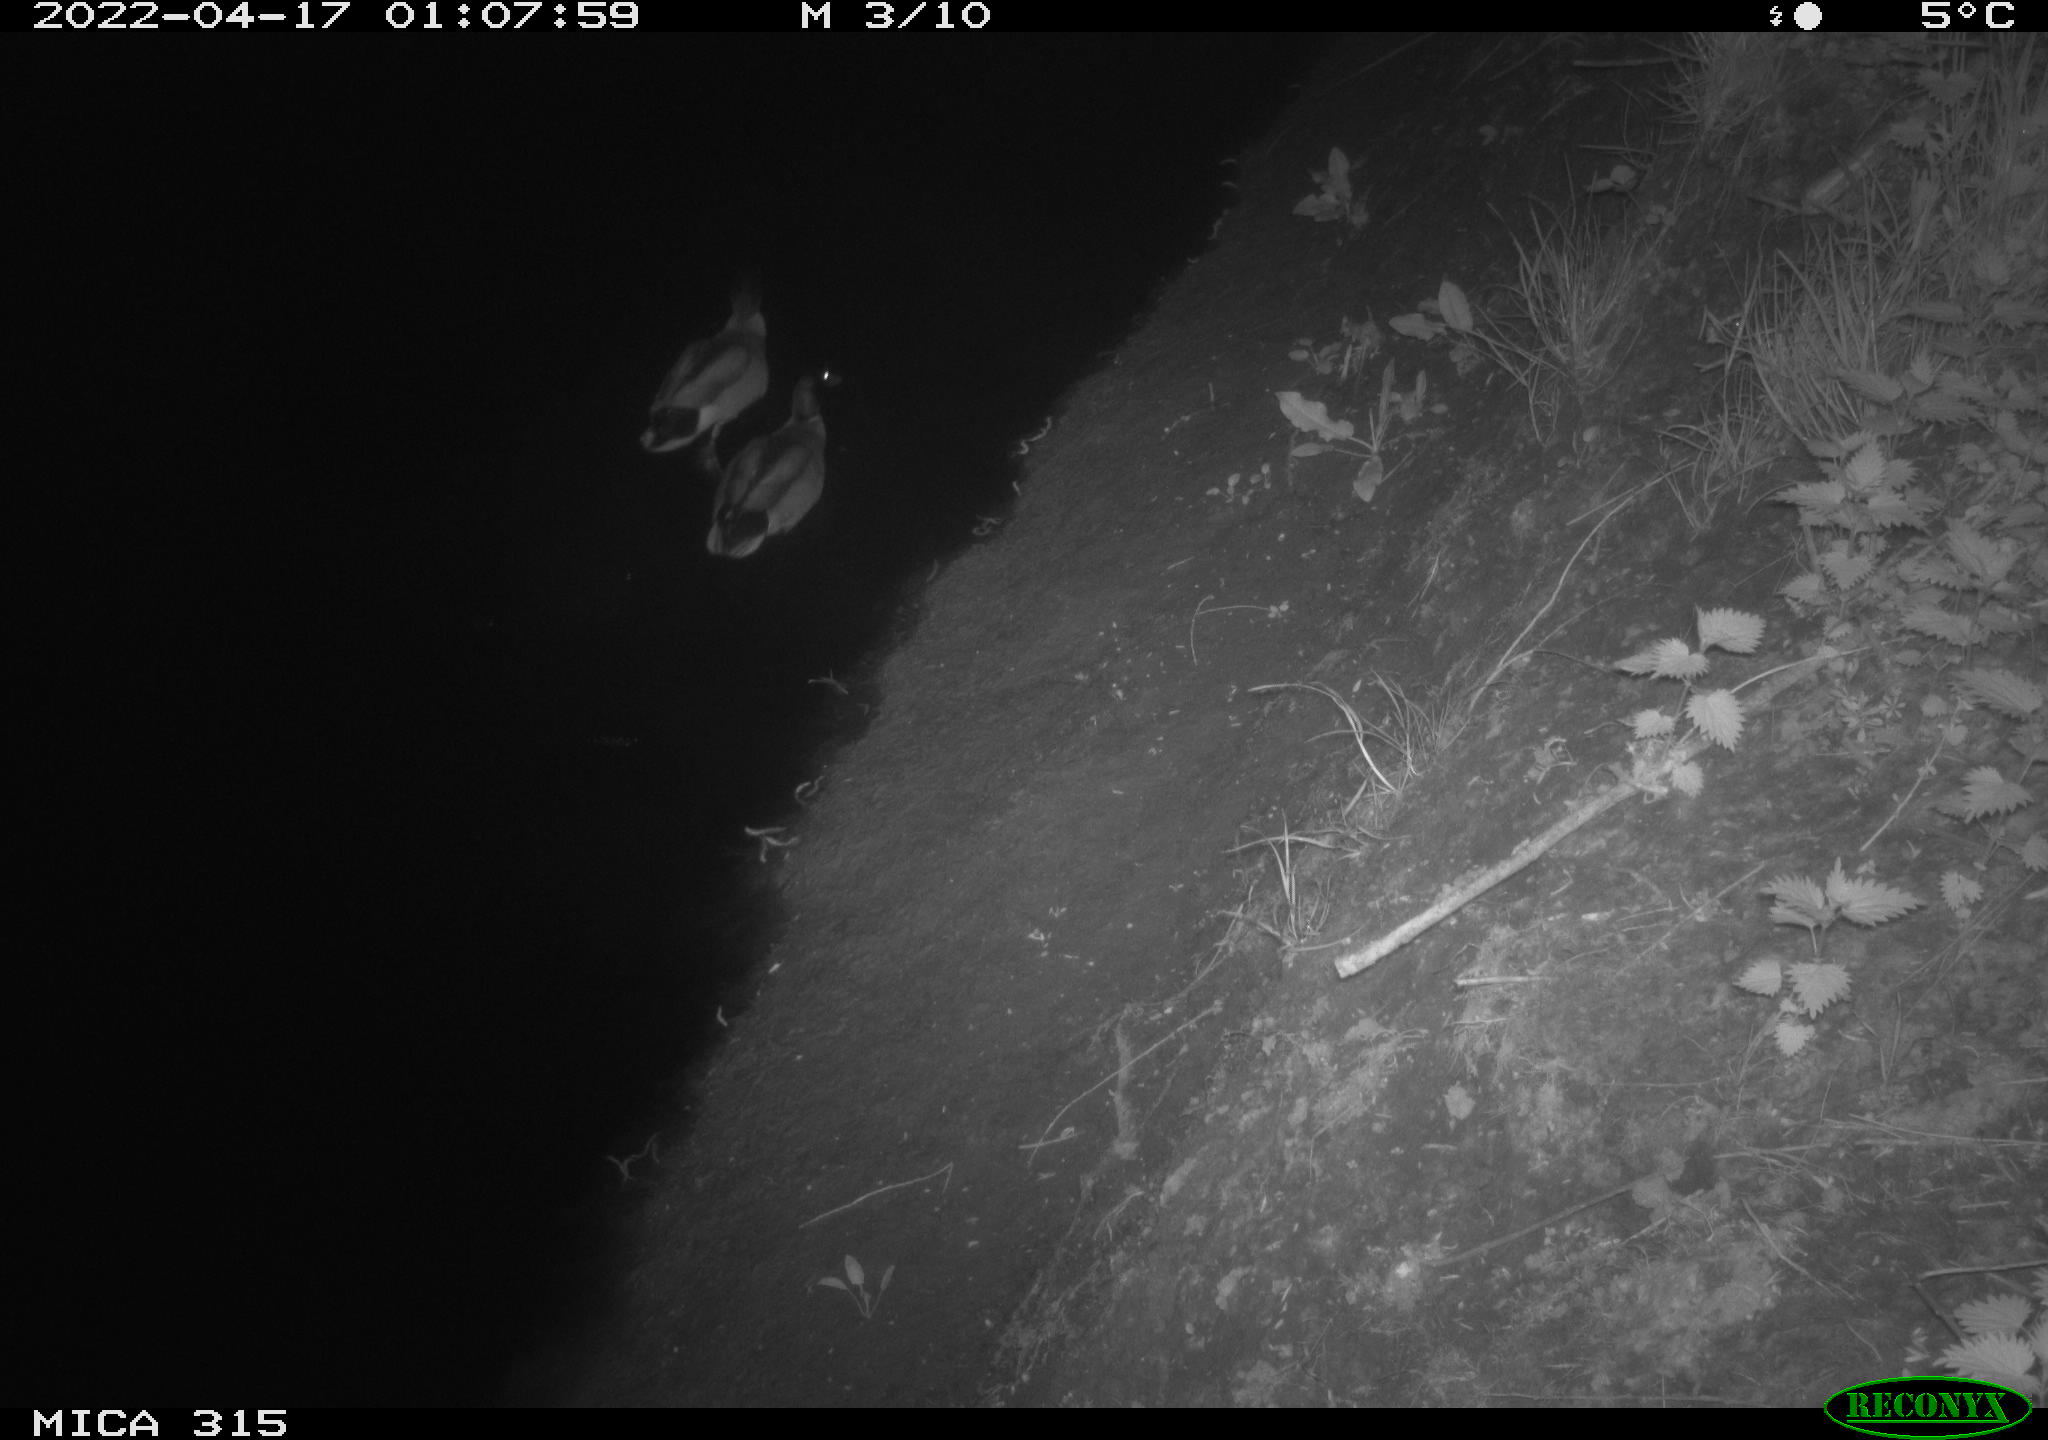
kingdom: Animalia
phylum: Chordata
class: Aves
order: Anseriformes
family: Anatidae
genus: Anas
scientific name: Anas platyrhynchos
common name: Mallard
